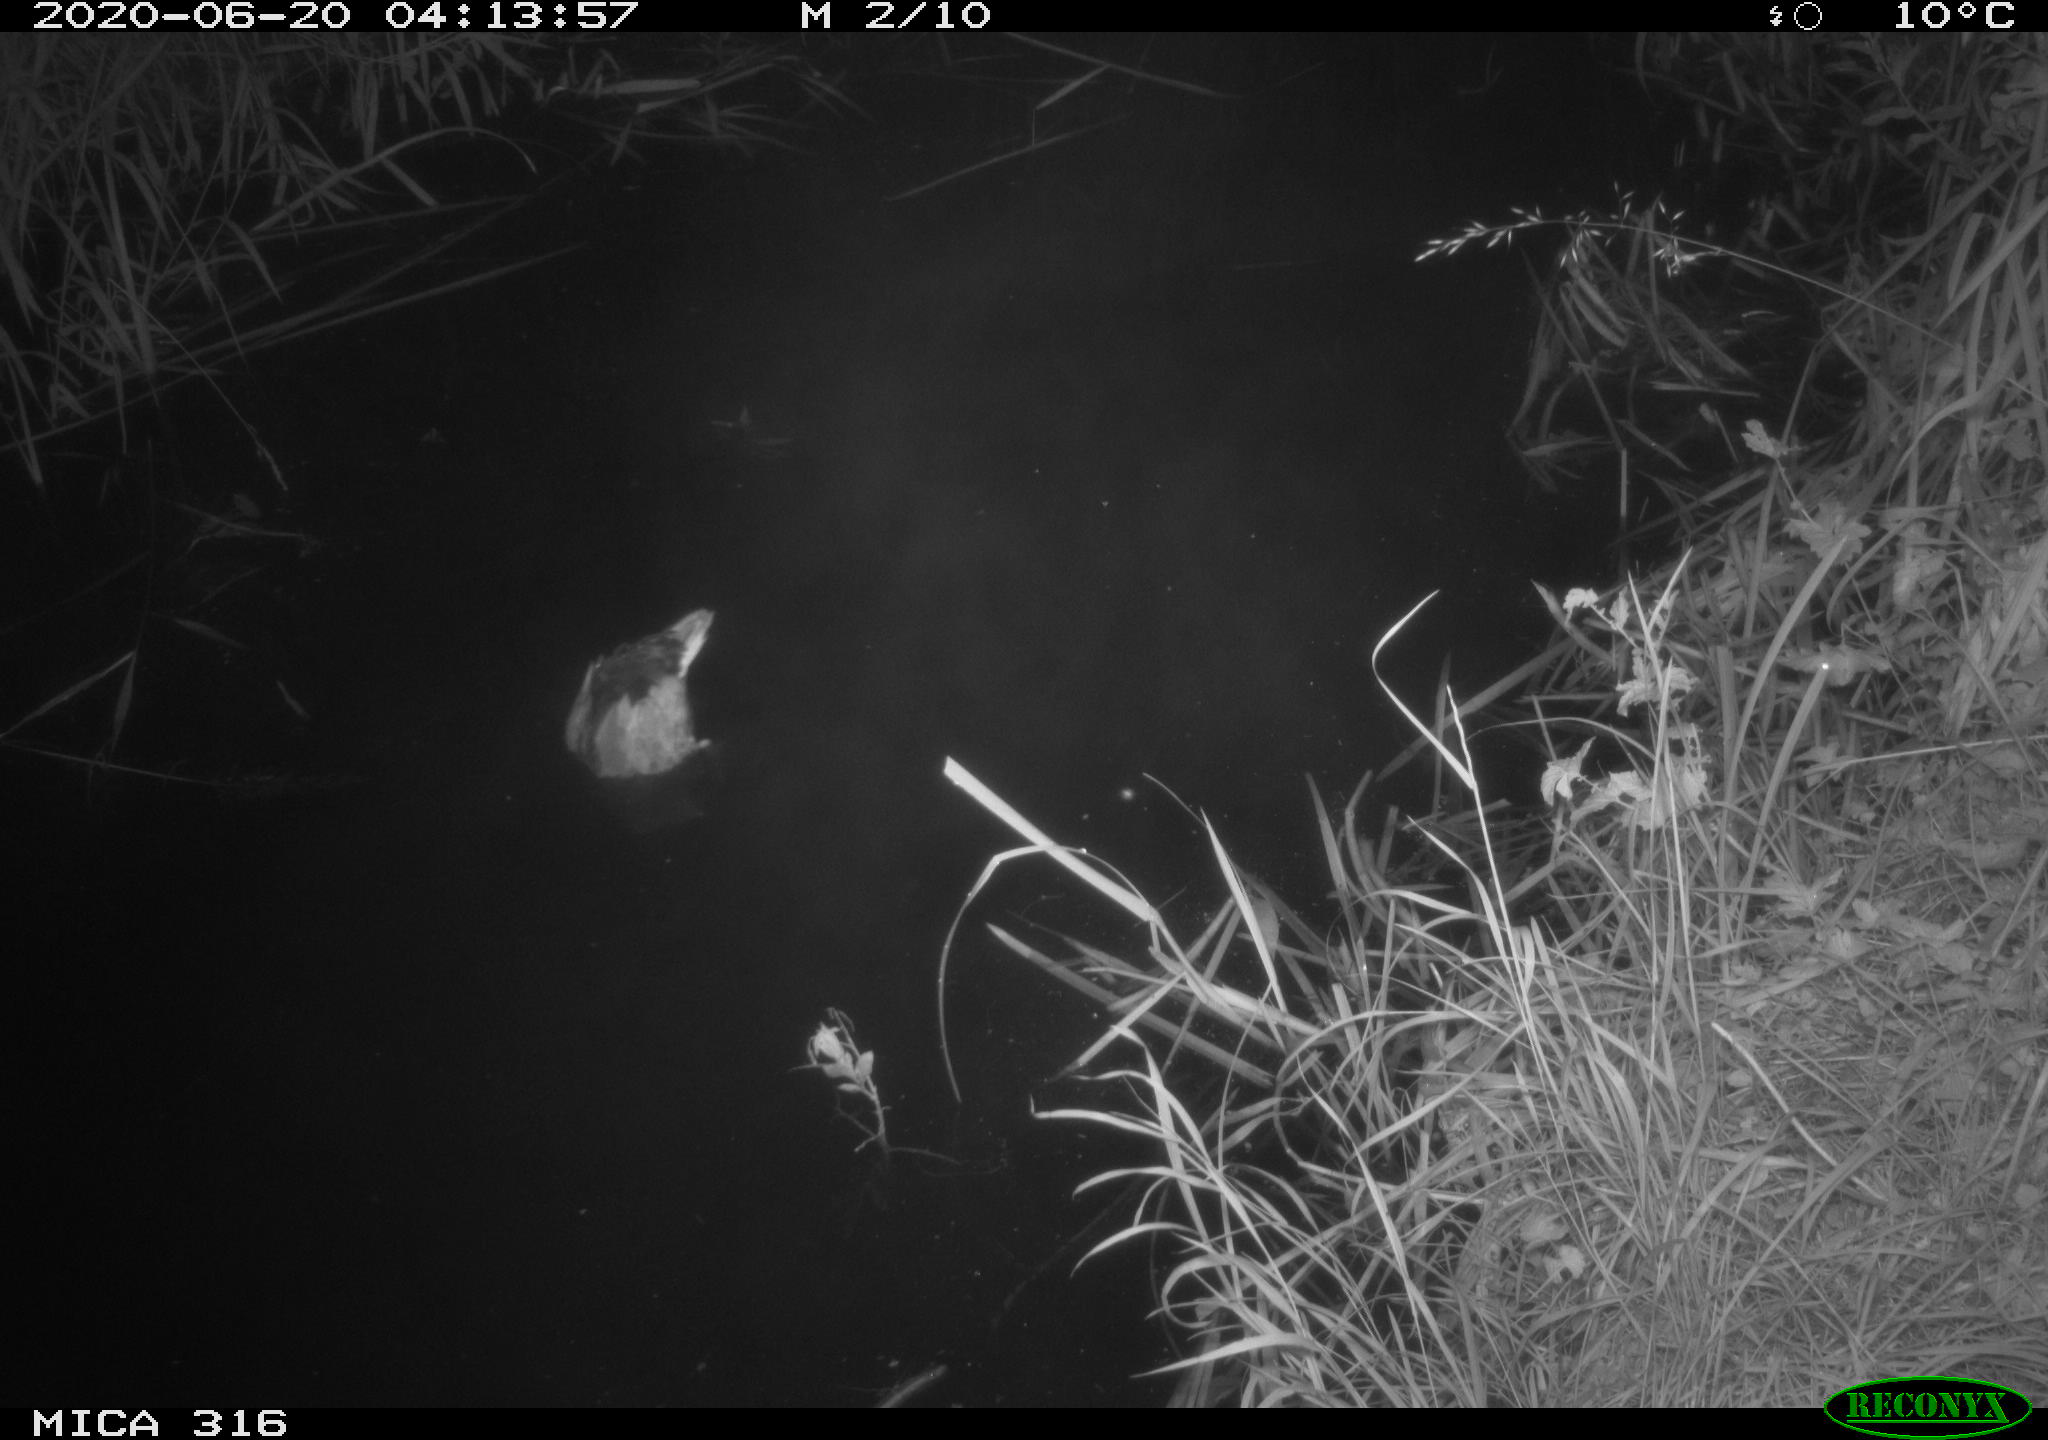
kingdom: Animalia
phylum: Chordata
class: Aves
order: Anseriformes
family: Anatidae
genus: Anas
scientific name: Anas platyrhynchos
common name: Mallard
